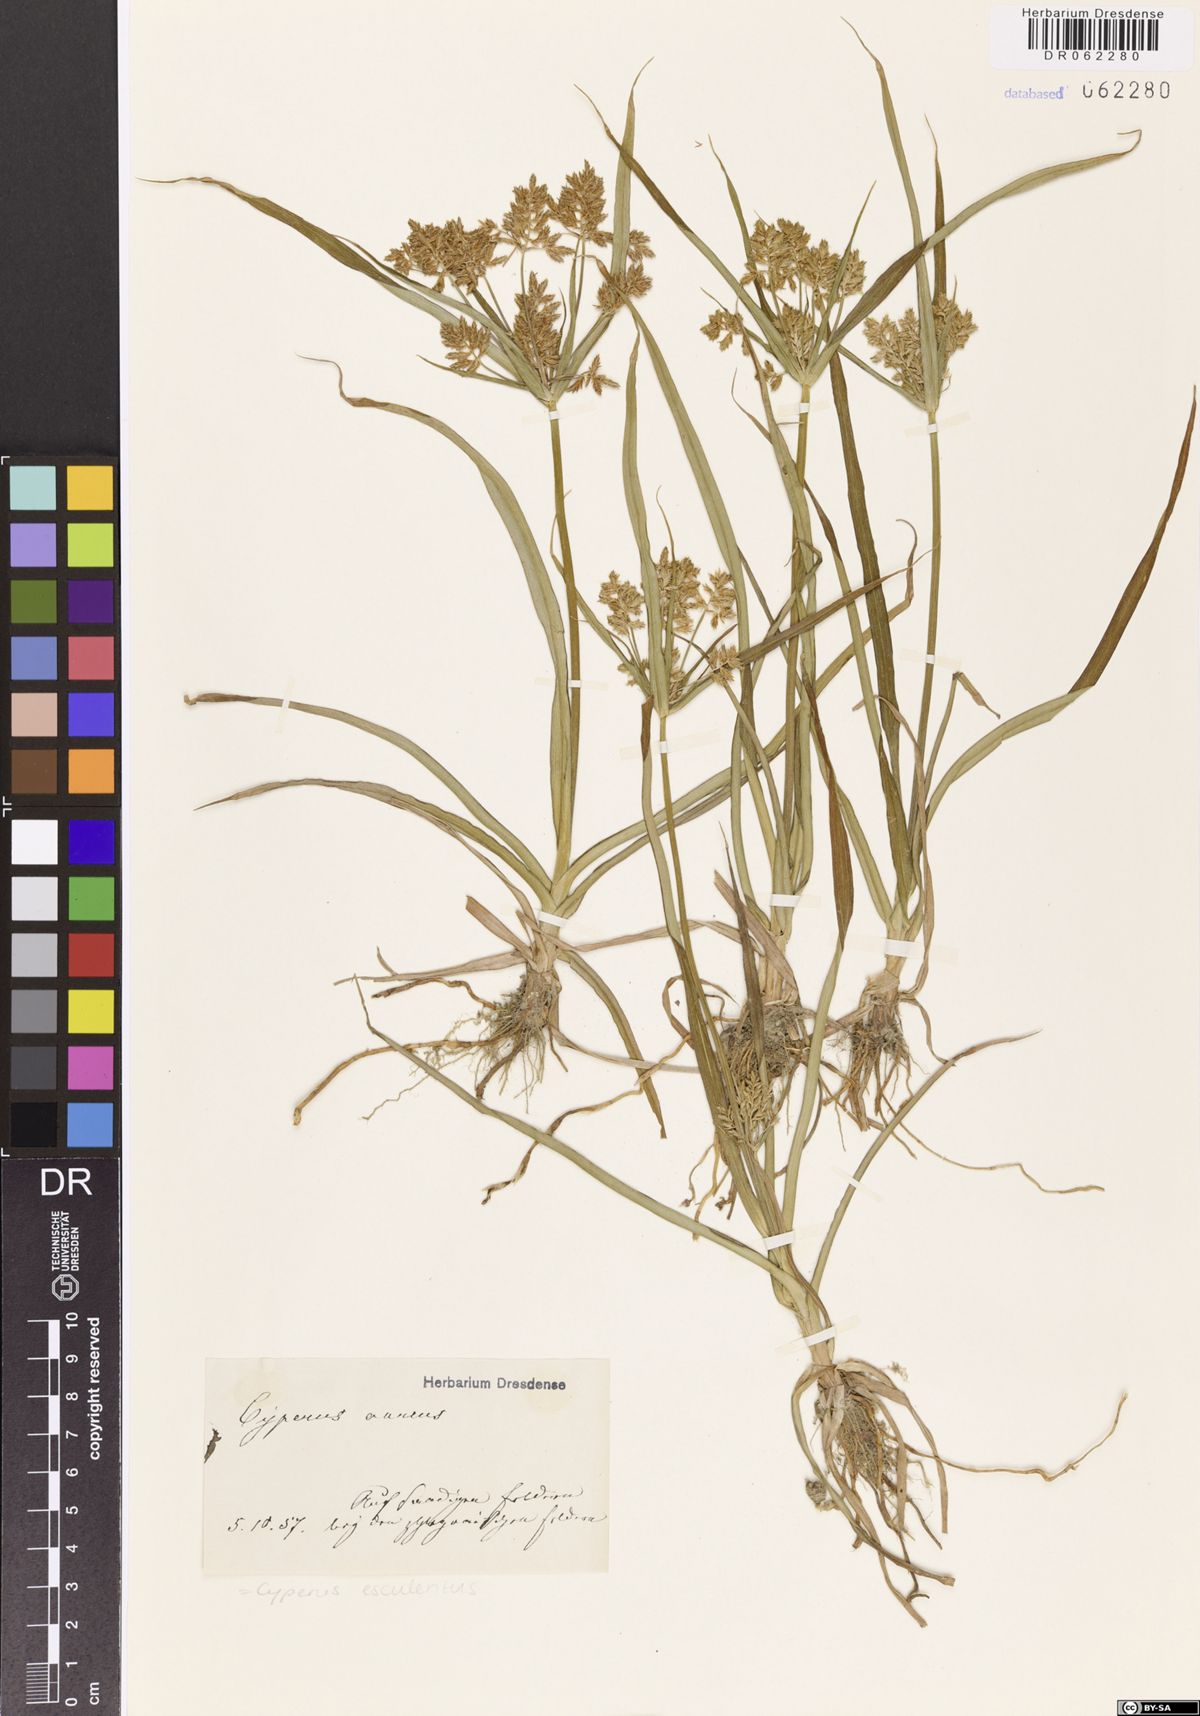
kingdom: Plantae
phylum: Tracheophyta
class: Liliopsida
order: Poales
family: Cyperaceae
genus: Cyperus
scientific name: Cyperus esculentus
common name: Yellow nutsedge
